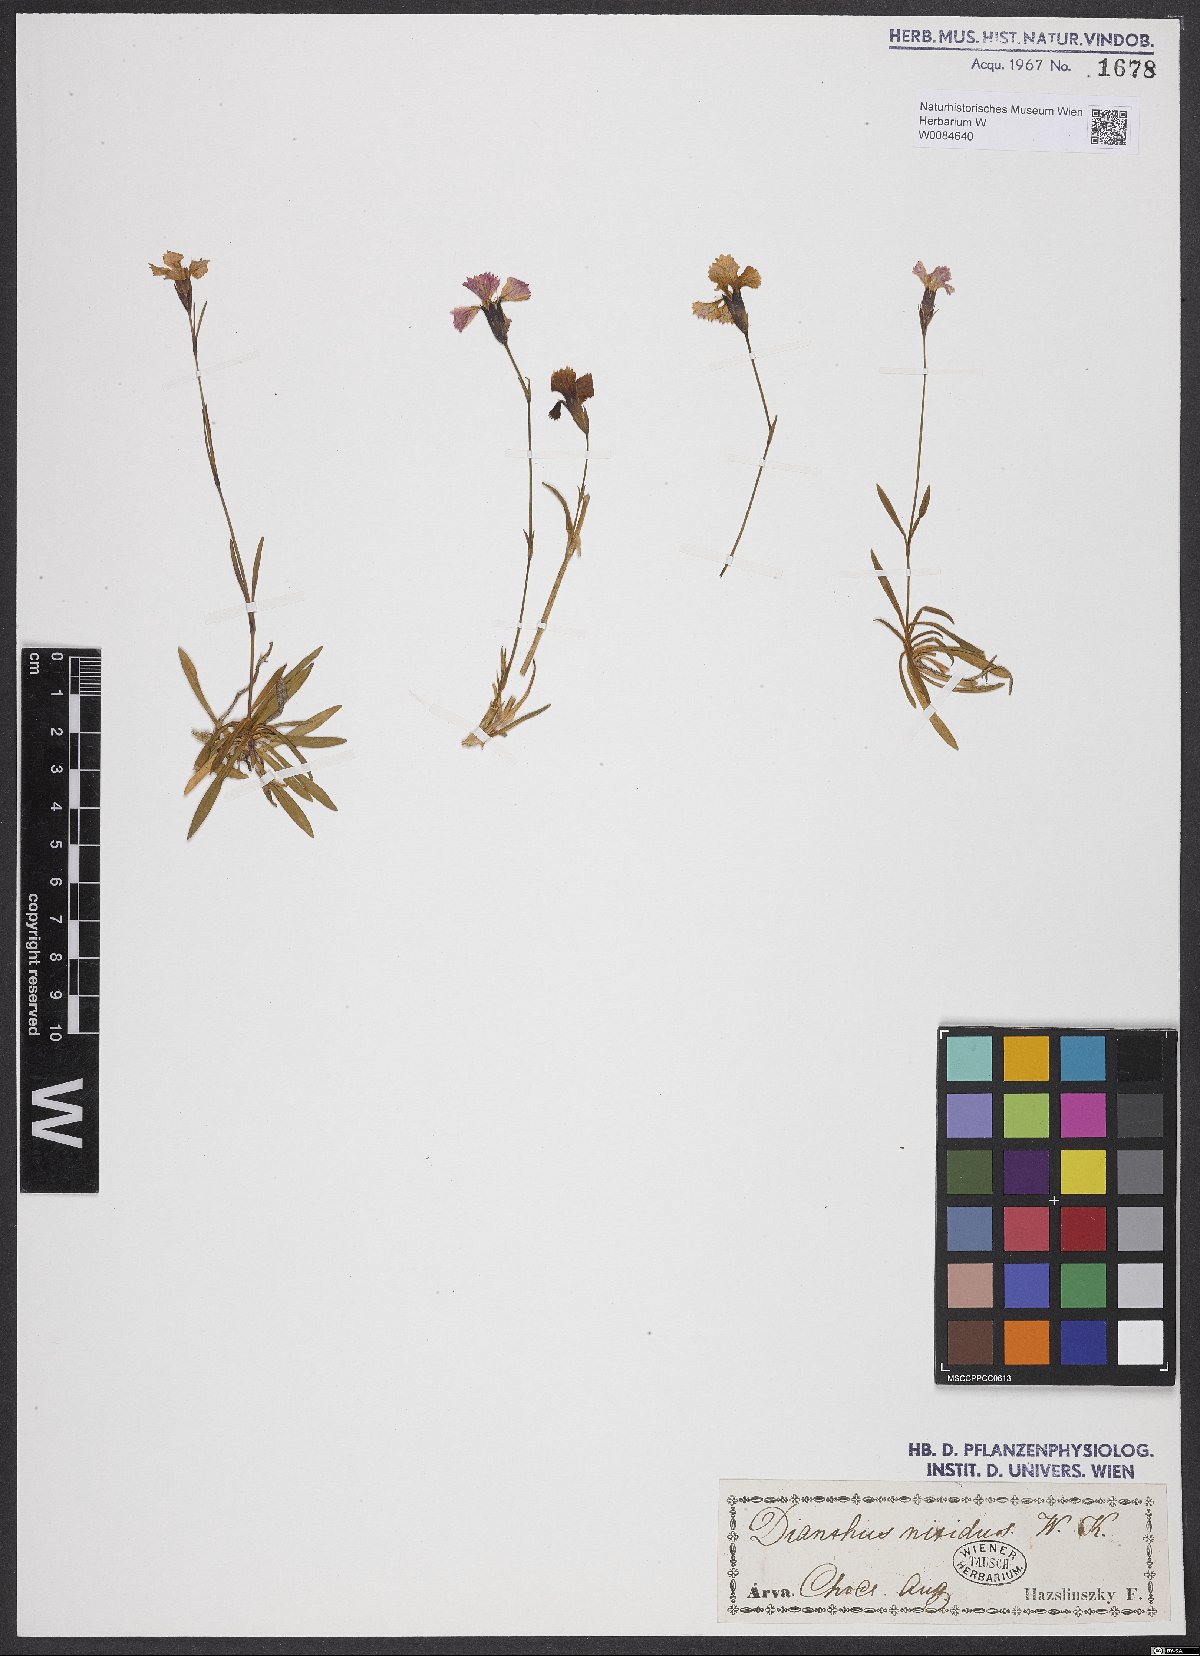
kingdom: Plantae
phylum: Tracheophyta
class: Magnoliopsida
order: Caryophyllales
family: Caryophyllaceae
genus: Dianthus
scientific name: Dianthus nitidus
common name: Carpathian glossy pink
